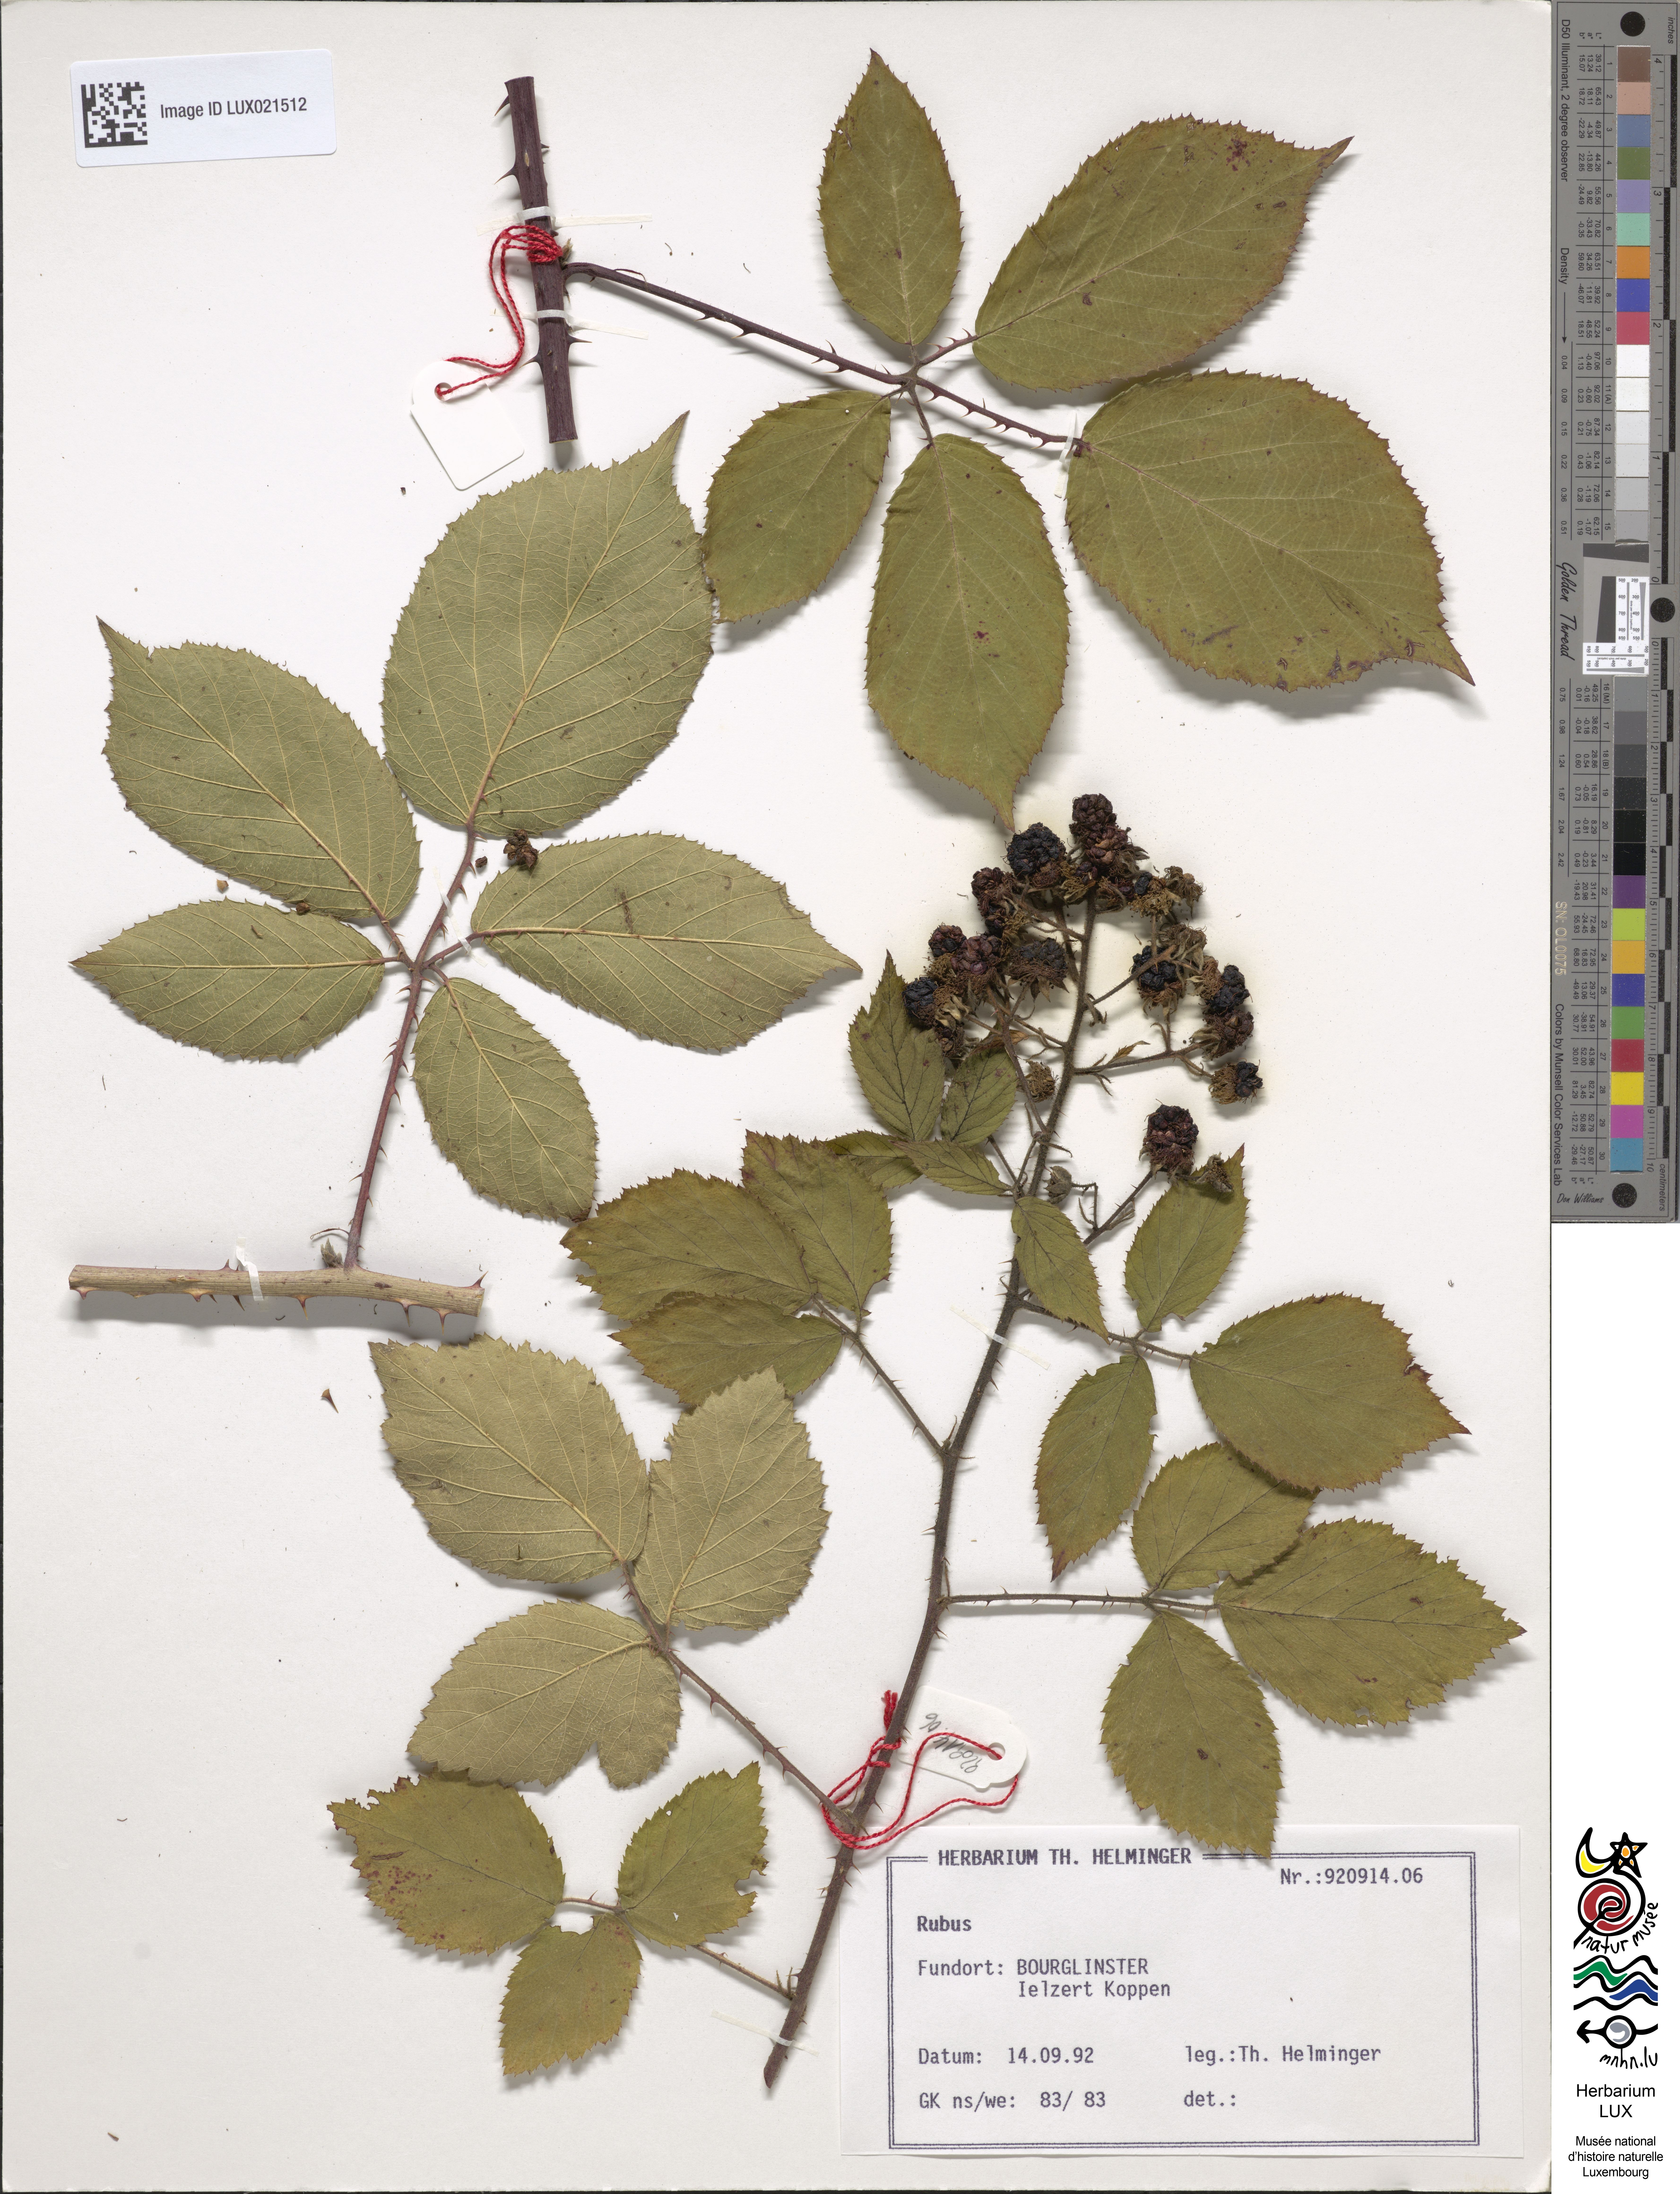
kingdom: Plantae
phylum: Tracheophyta
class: Magnoliopsida
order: Rosales
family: Rosaceae
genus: Rubus
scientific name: Rubus
